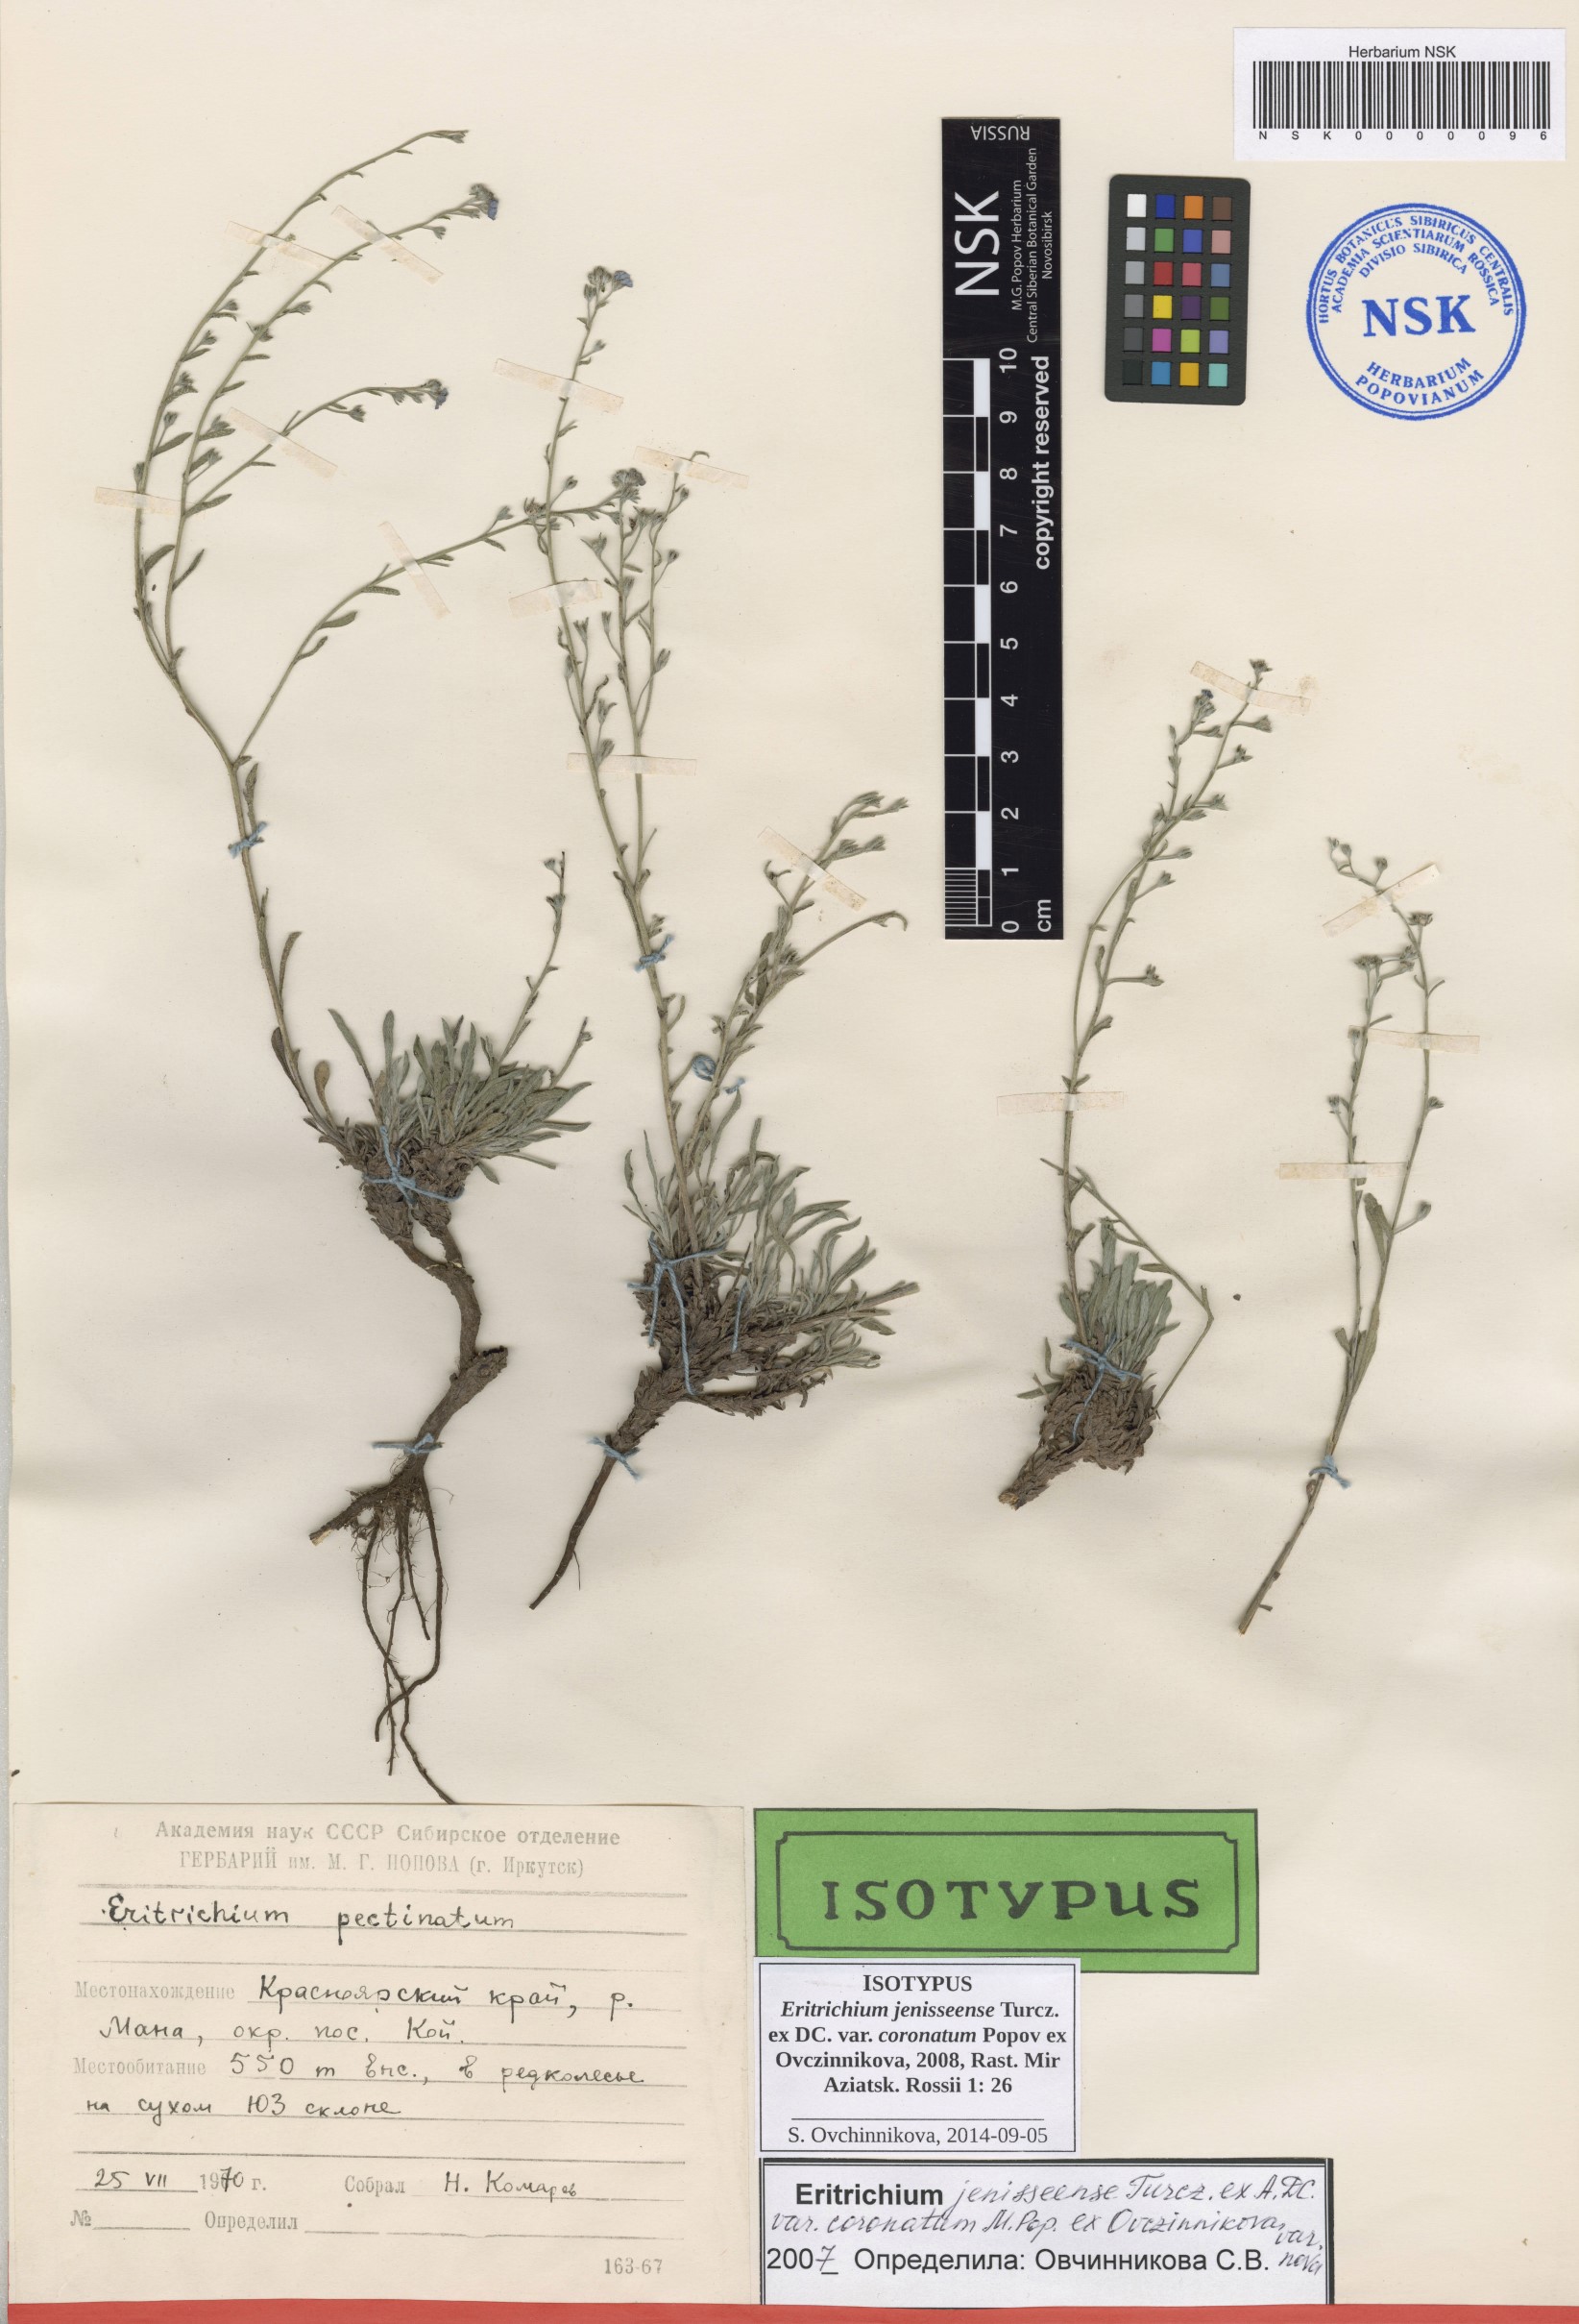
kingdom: Plantae
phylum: Tracheophyta
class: Magnoliopsida
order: Boraginales
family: Boraginaceae
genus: Eritrichium
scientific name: Eritrichium jenisseense
